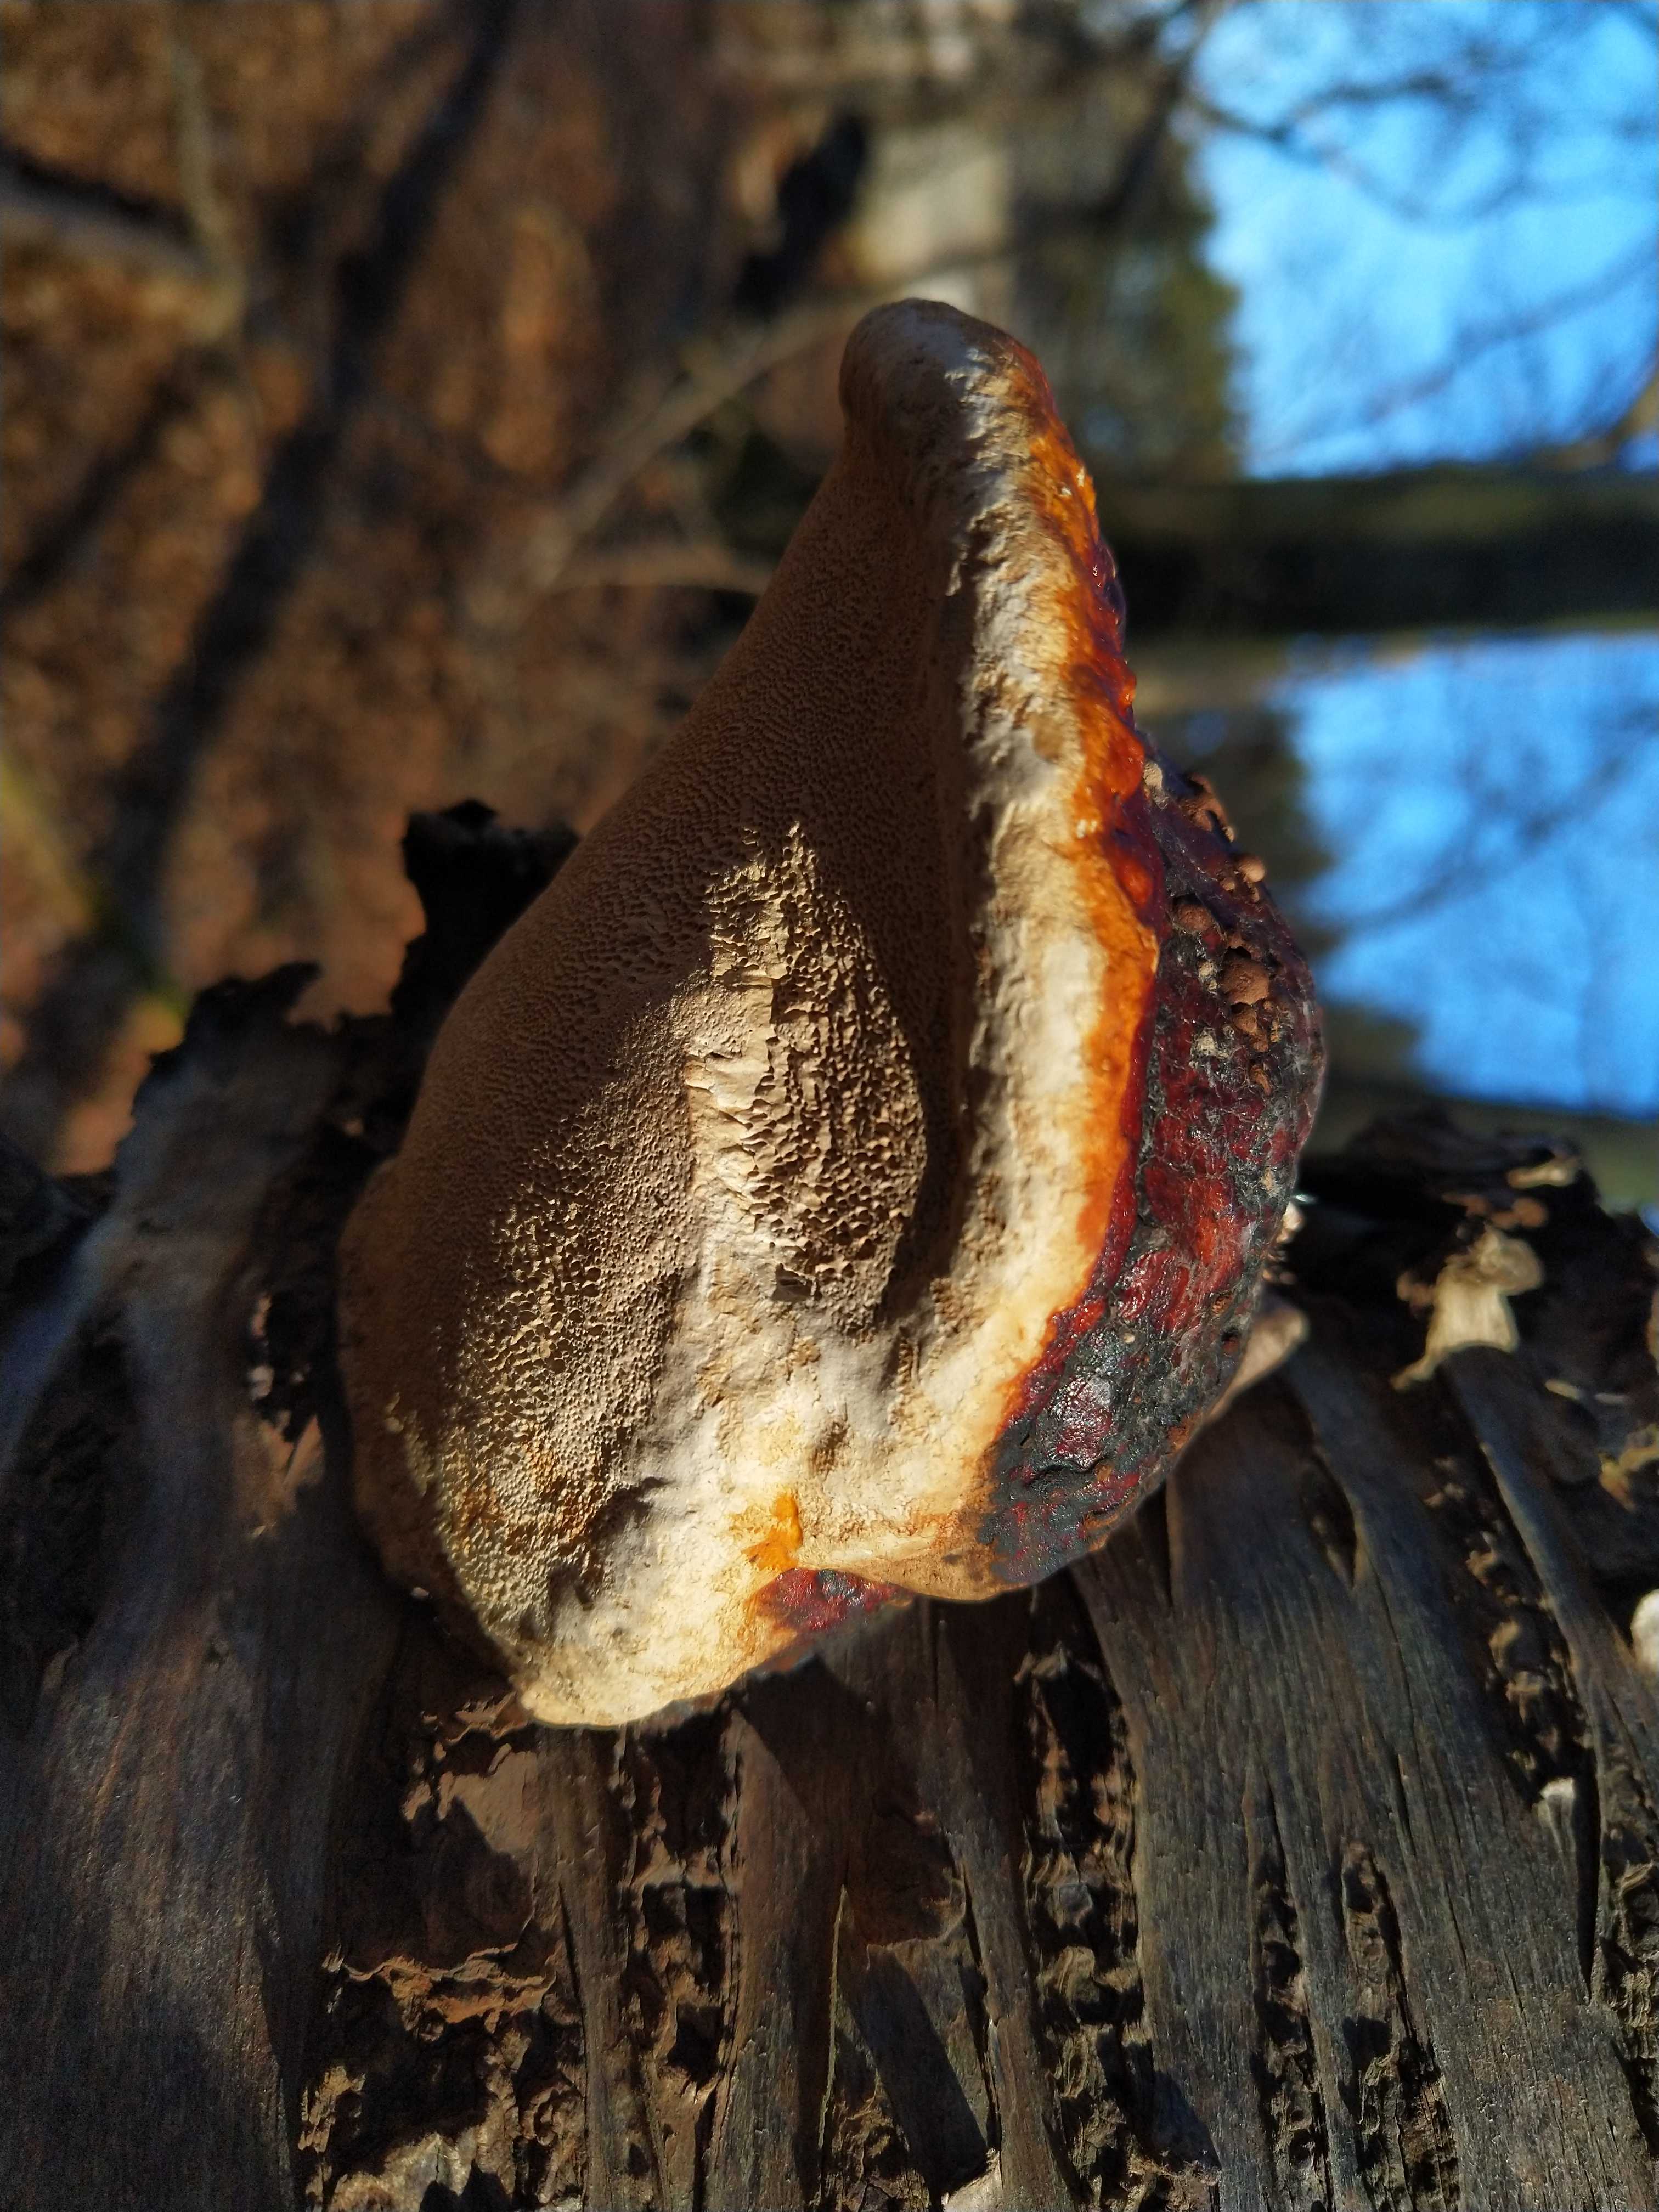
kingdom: Fungi
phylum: Basidiomycota
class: Agaricomycetes
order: Polyporales
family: Fomitopsidaceae
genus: Fomitopsis
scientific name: Fomitopsis pinicola
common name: randbæltet hovporesvamp
